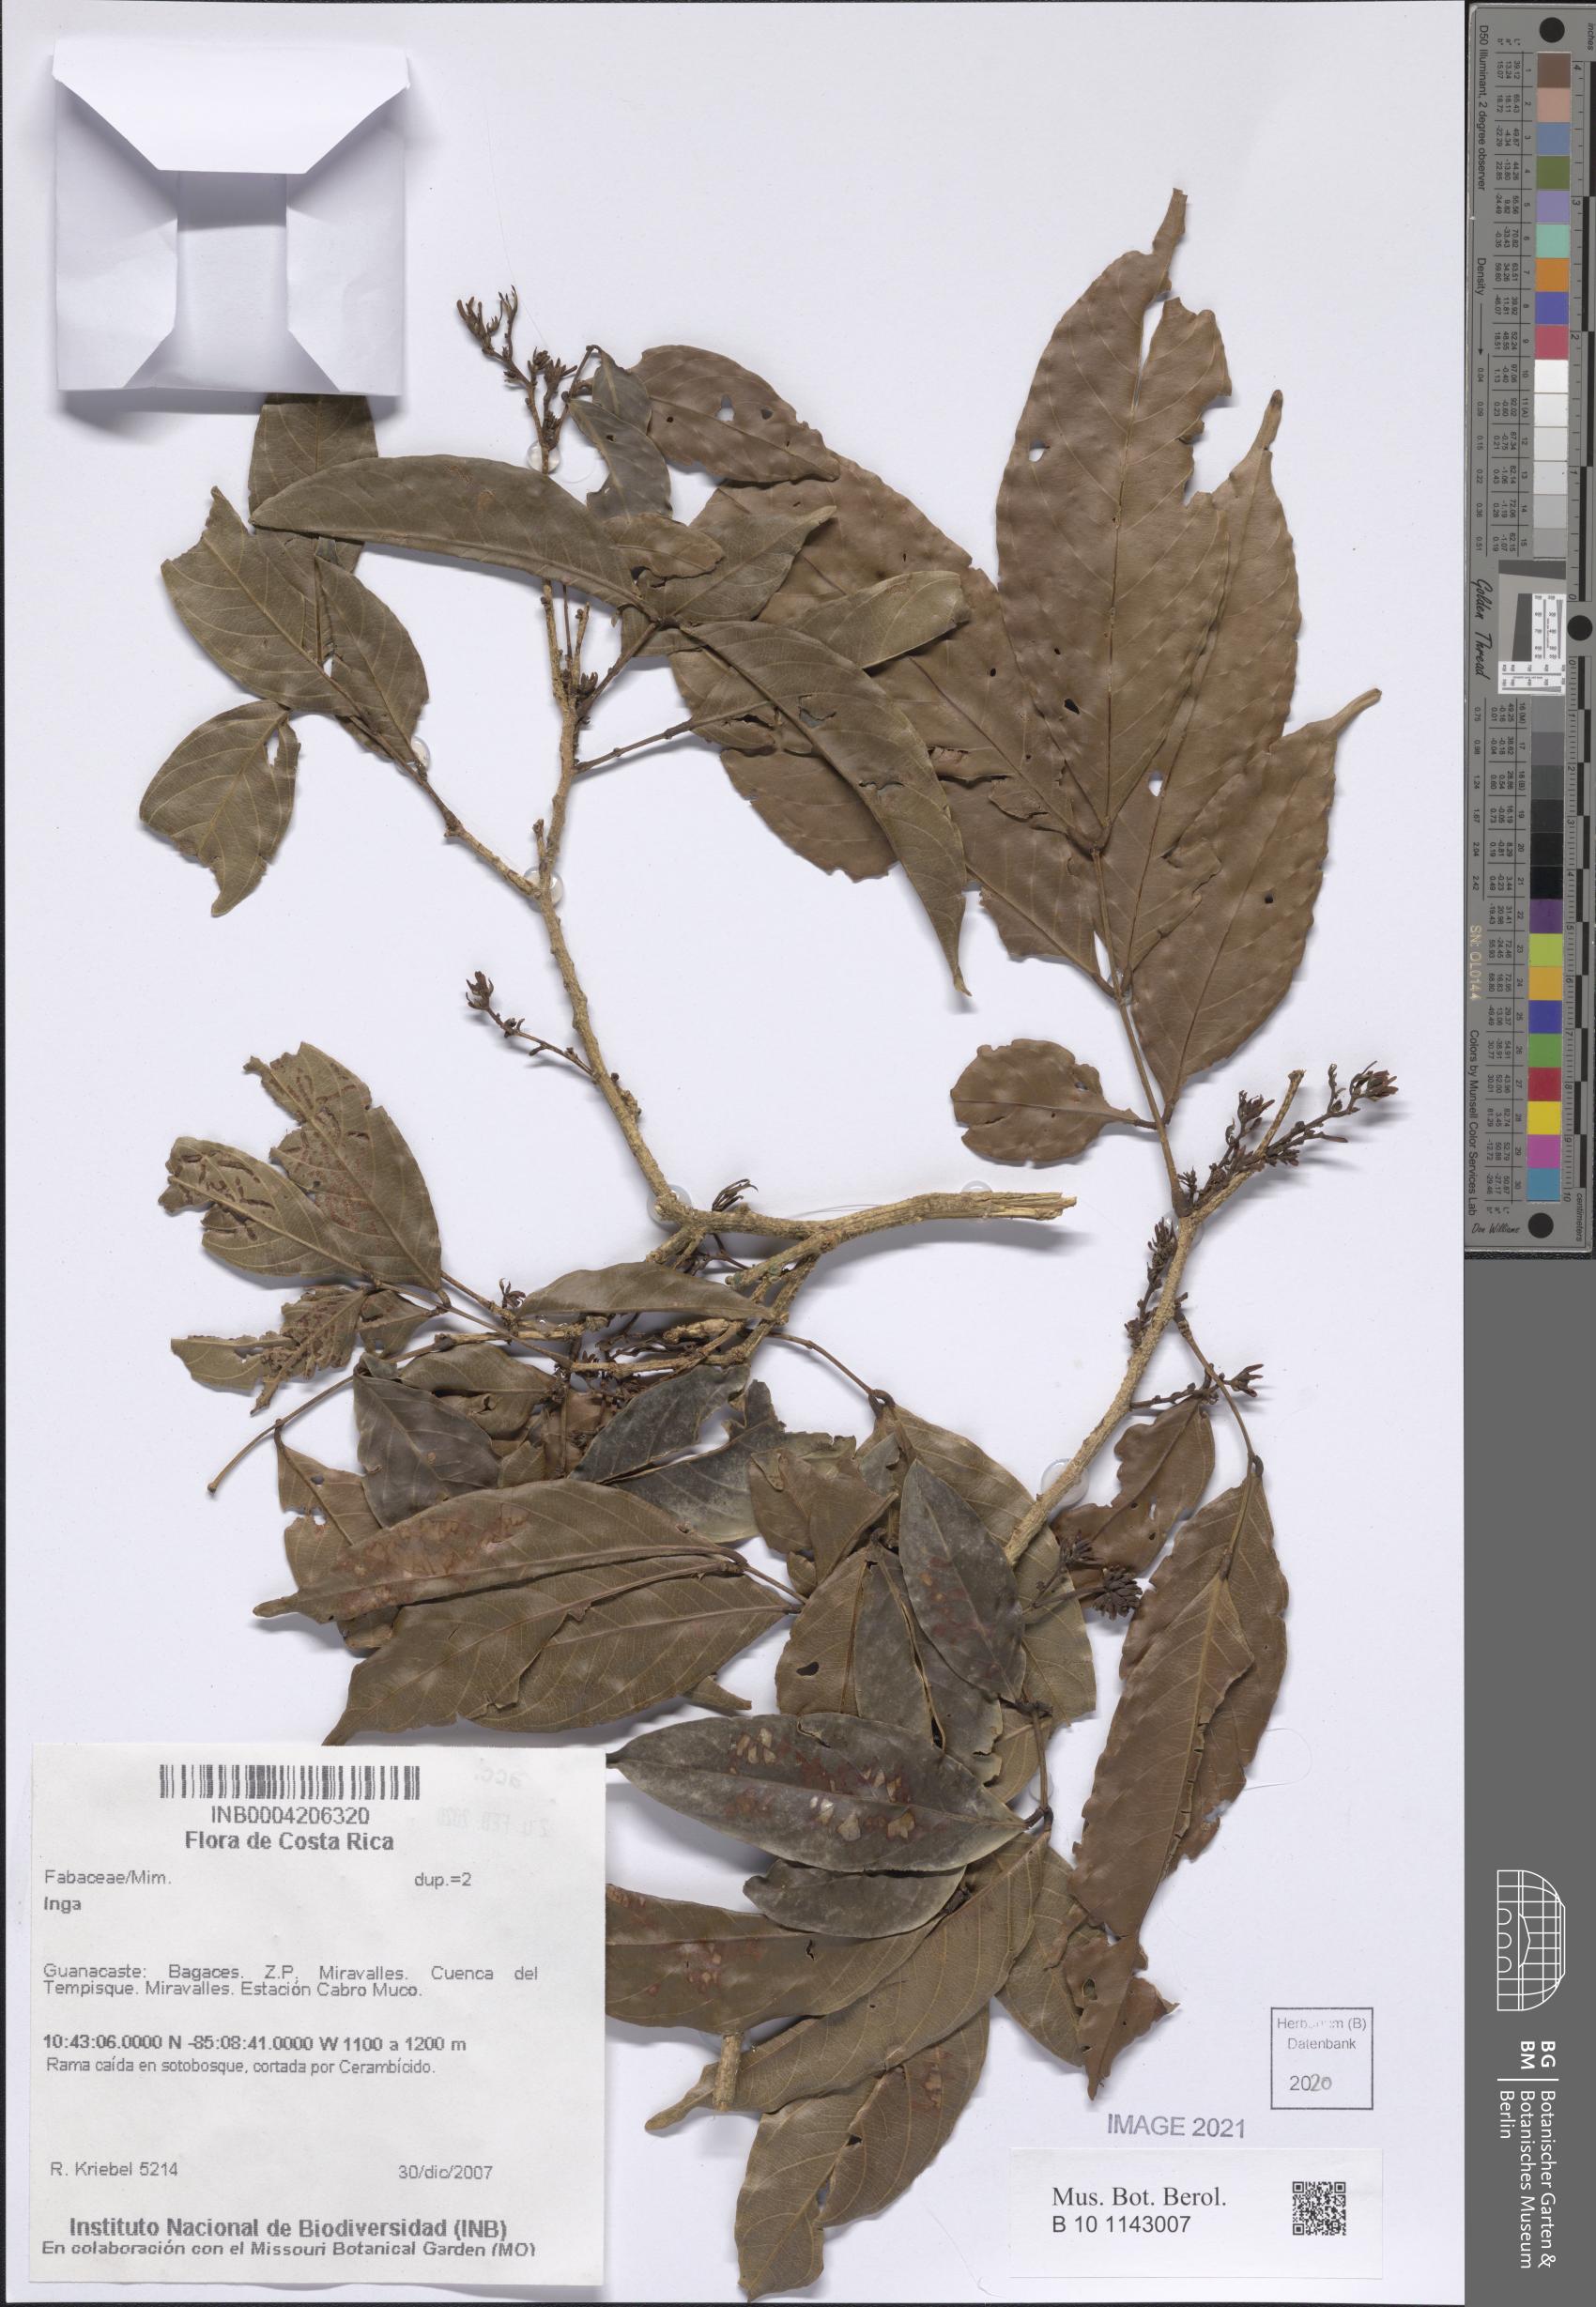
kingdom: Plantae
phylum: Tracheophyta
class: Magnoliopsida
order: Fabales
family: Fabaceae
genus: Inga
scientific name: Inga
